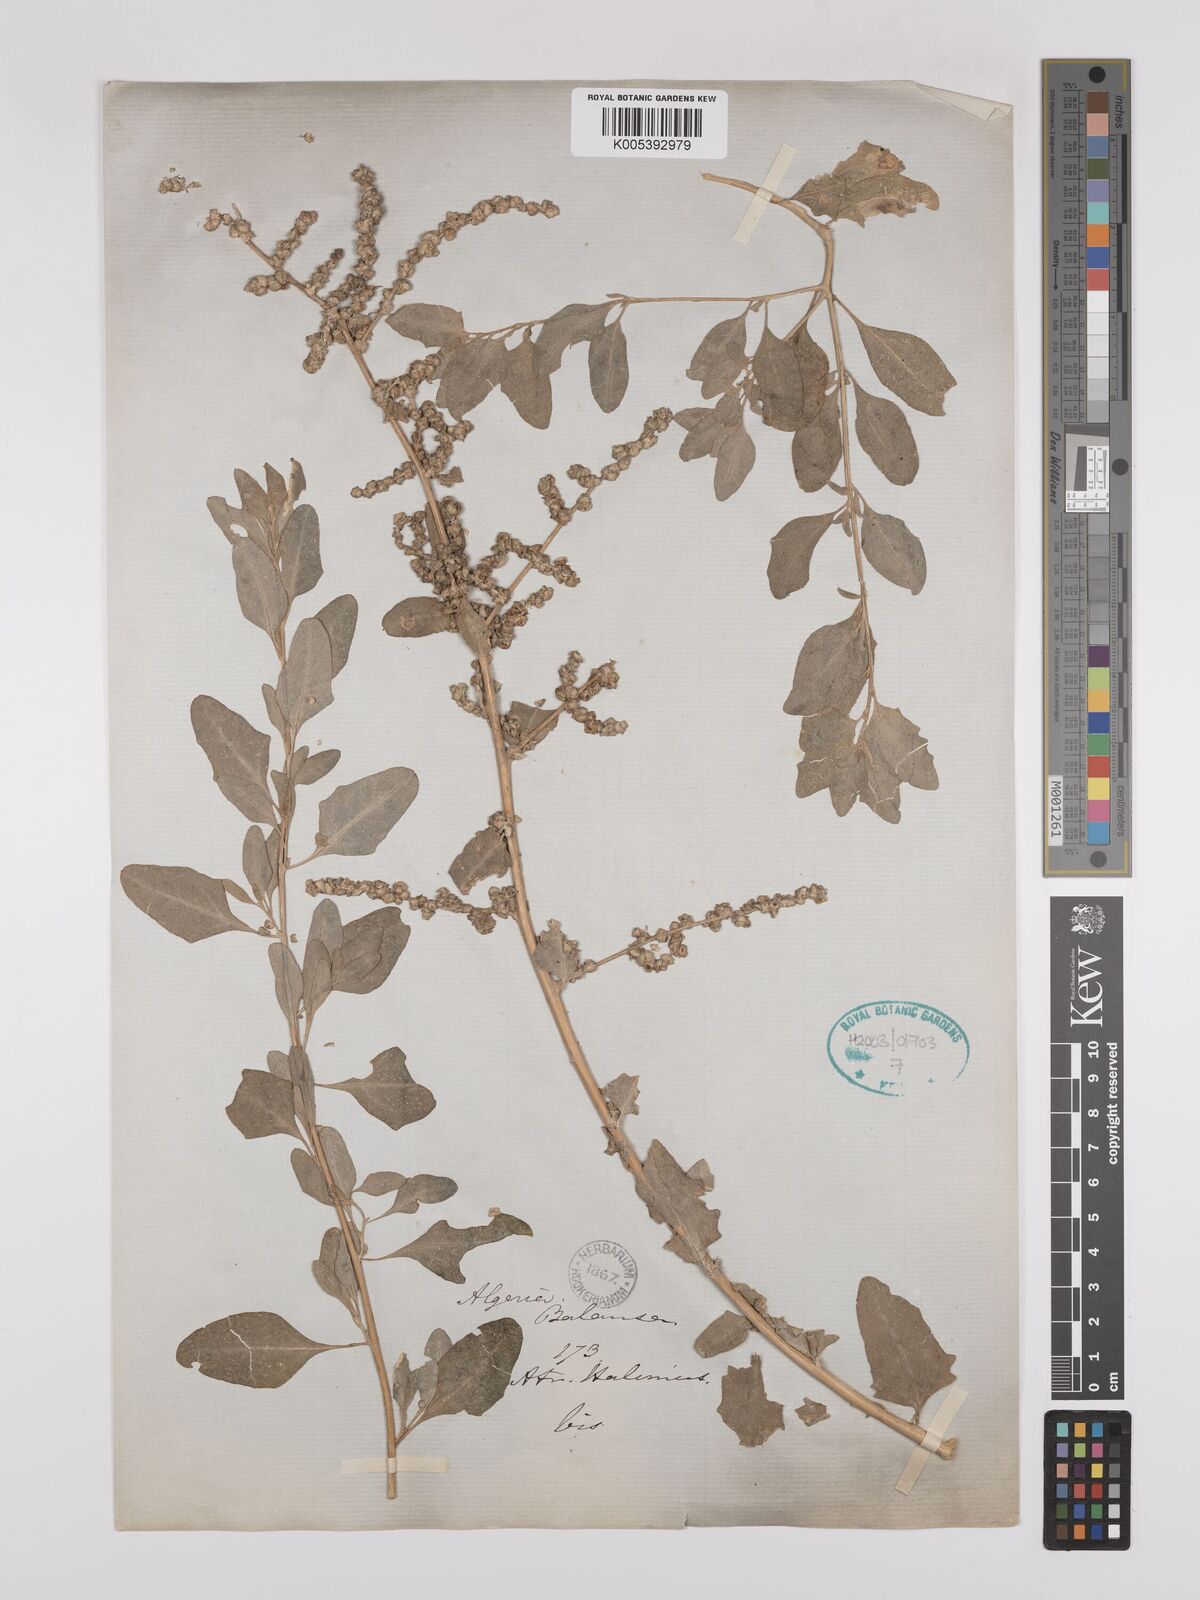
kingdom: Plantae
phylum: Tracheophyta
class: Magnoliopsida
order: Caryophyllales
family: Amaranthaceae
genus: Atriplex
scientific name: Atriplex
